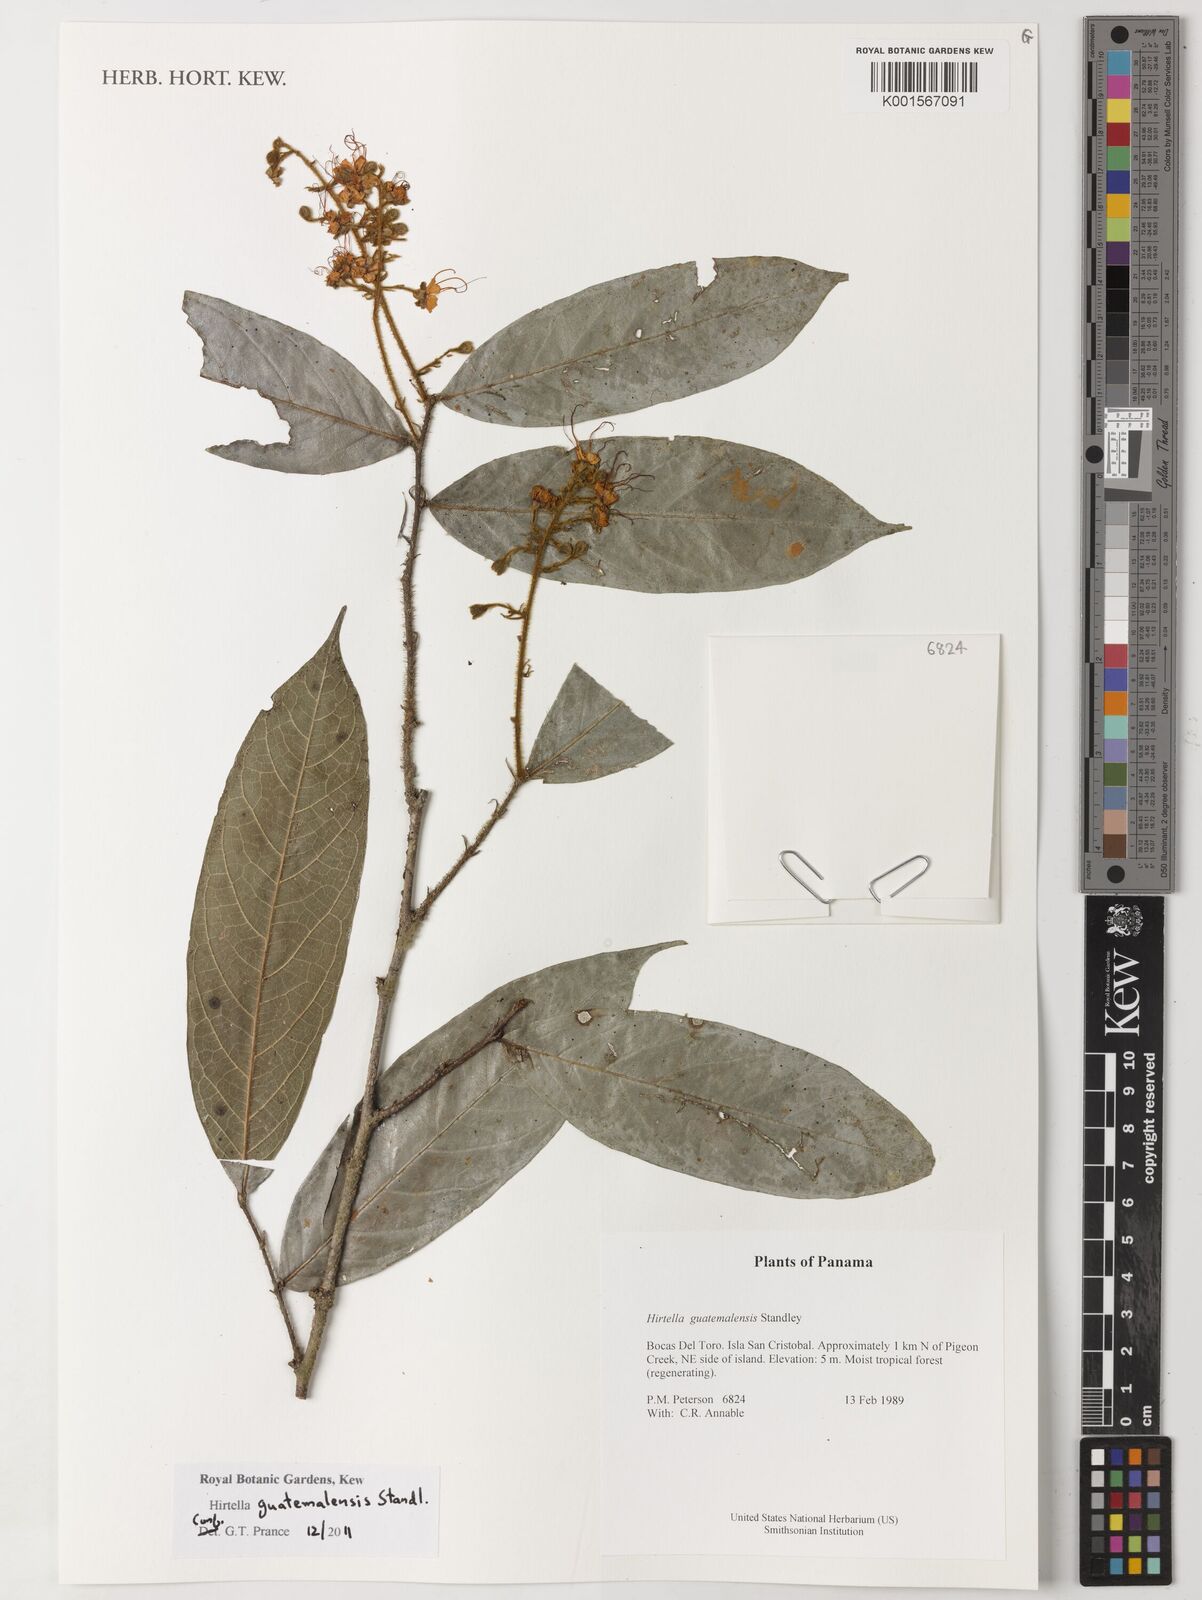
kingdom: Plantae
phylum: Tracheophyta
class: Magnoliopsida
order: Malpighiales
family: Chrysobalanaceae
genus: Hirtella
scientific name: Hirtella guatemalensis
